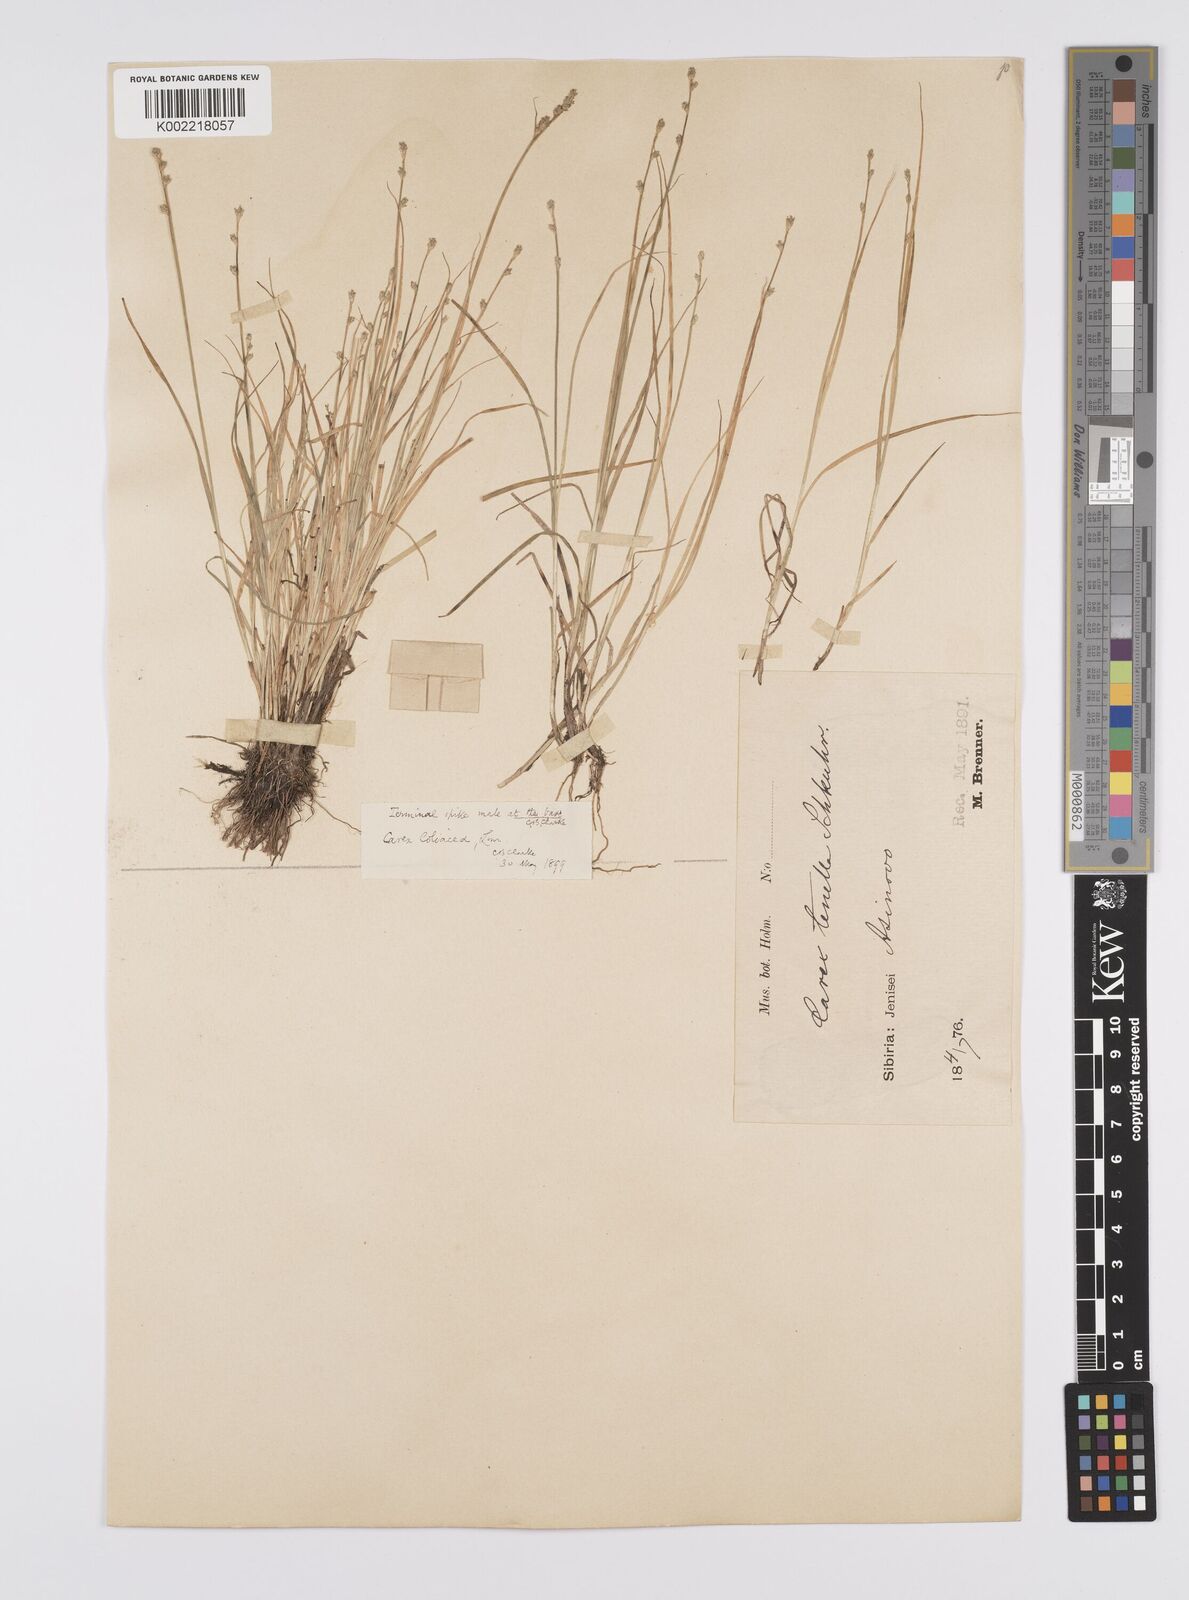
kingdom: Plantae
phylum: Tracheophyta
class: Liliopsida
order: Poales
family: Cyperaceae
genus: Carex
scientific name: Carex loliacea
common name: Ryegrass sedge
